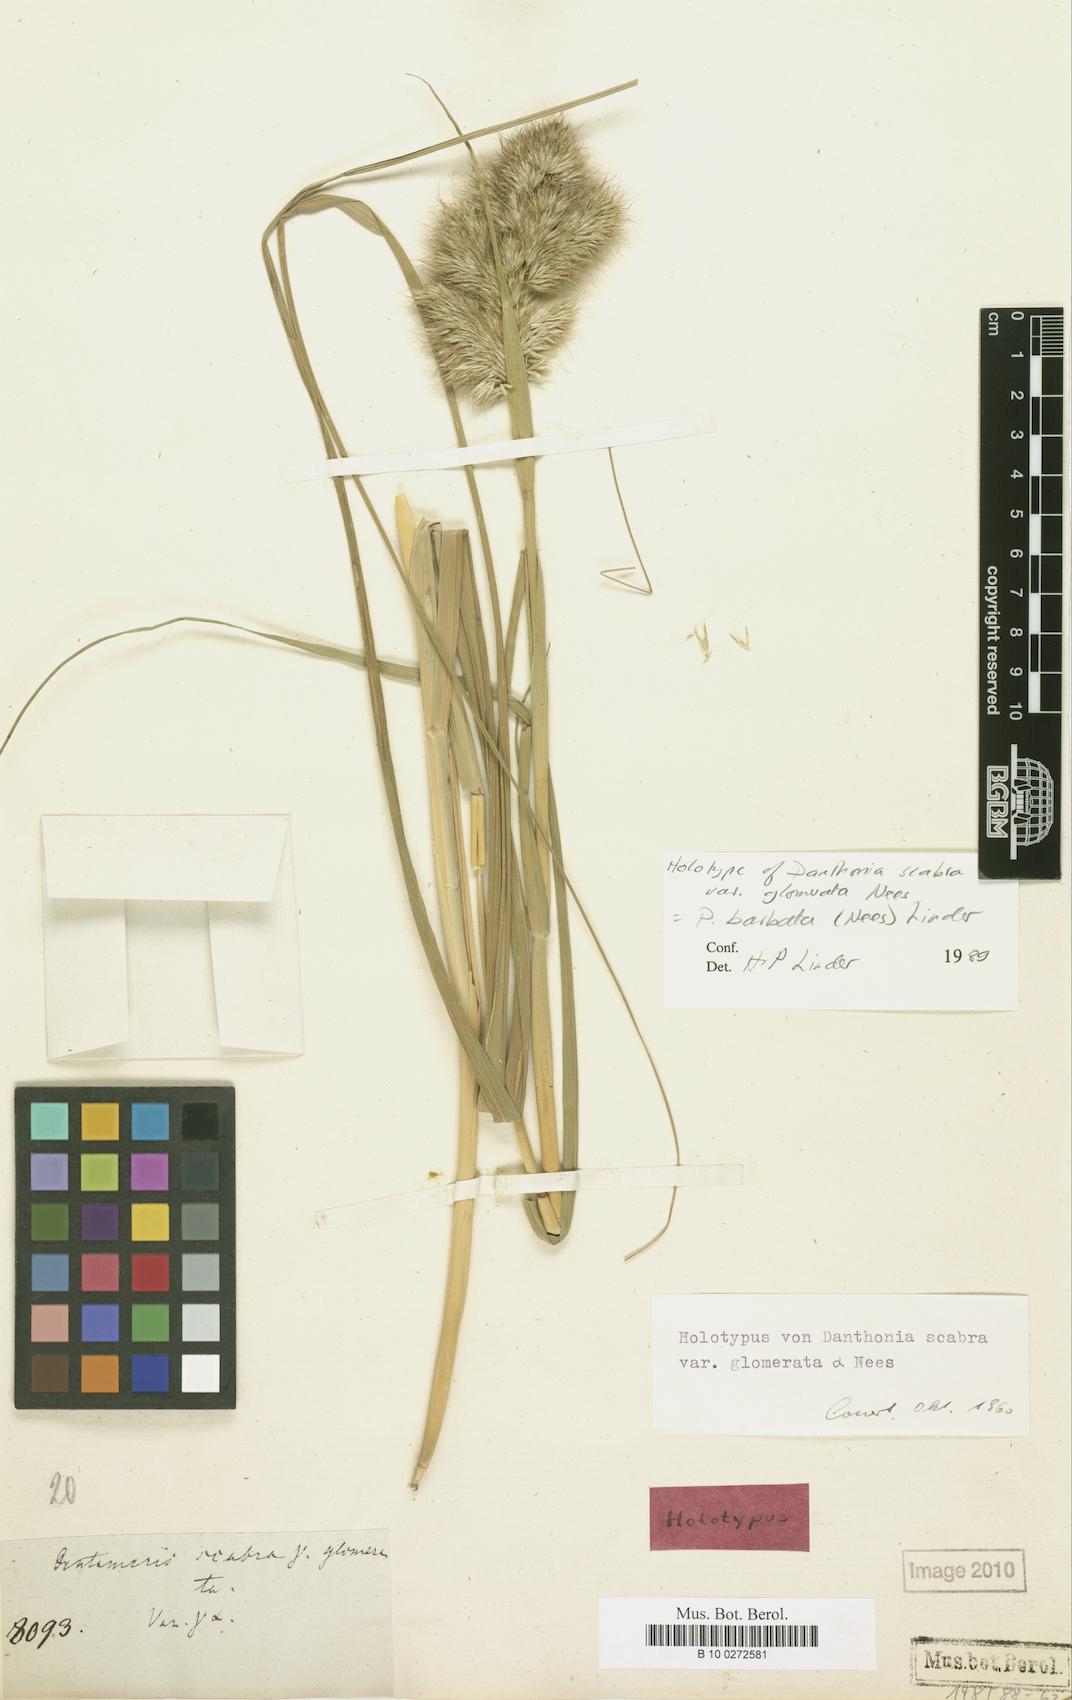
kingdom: Plantae
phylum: Tracheophyta
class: Liliopsida
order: Poales
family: Poaceae
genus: Pentameris
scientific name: Pentameris barbata
